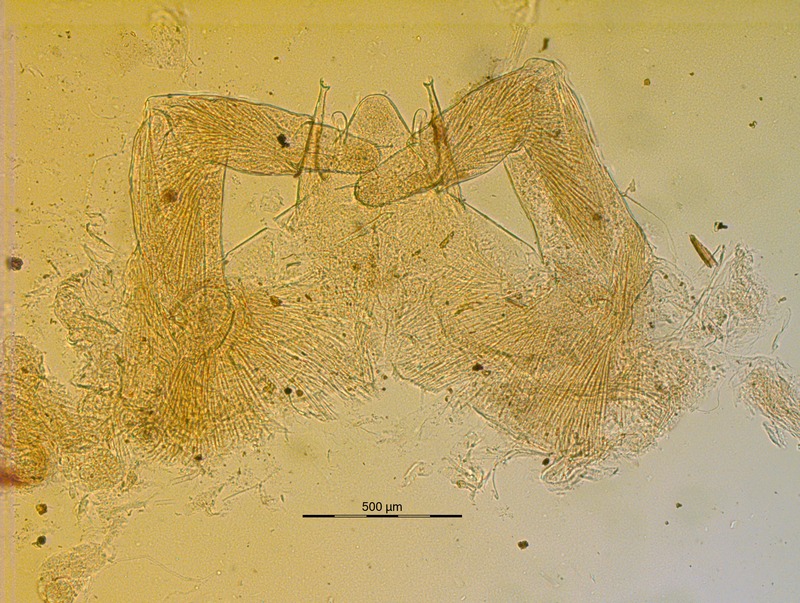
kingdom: Animalia
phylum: Arthropoda
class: Diplopoda
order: Glomerida
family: Glomeridellidae
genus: Typhloglomeris
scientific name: Typhloglomeris
